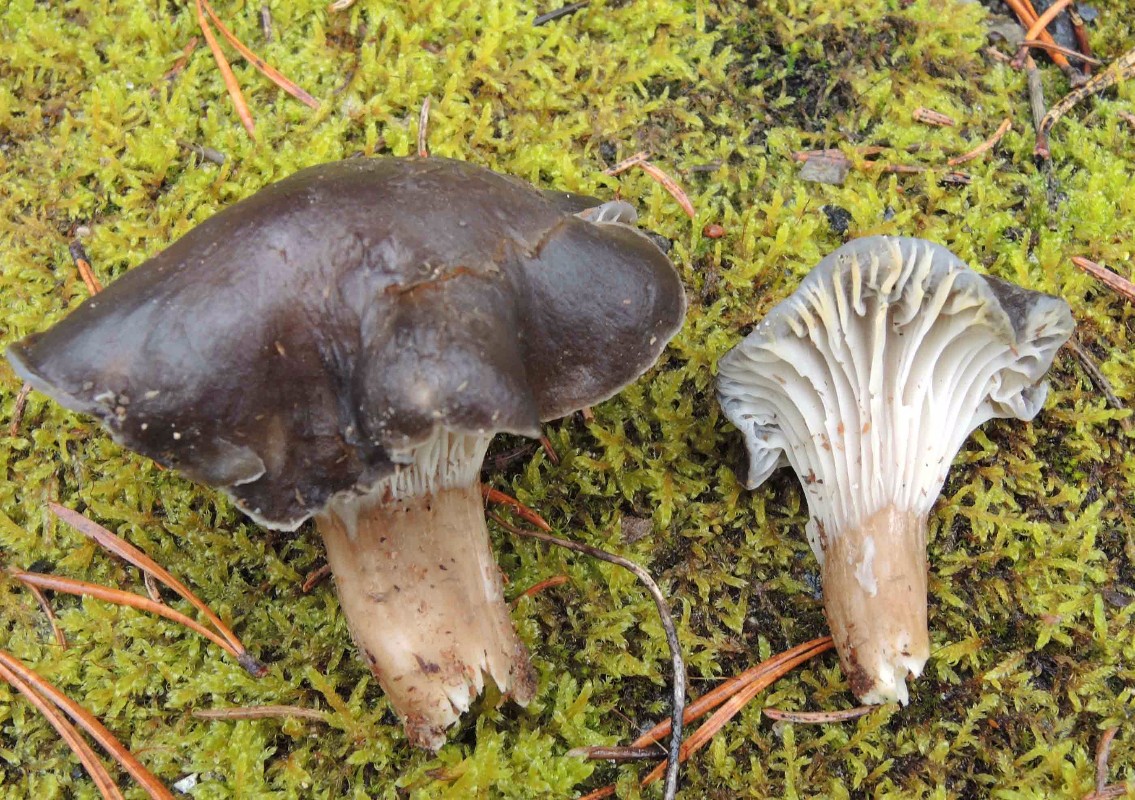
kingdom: Fungi
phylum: Basidiomycota
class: Agaricomycetes
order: Agaricales
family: Hygrophoraceae
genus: Hygrophorus
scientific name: Hygrophorus camarophyllus
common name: sodbrun sneglehat
